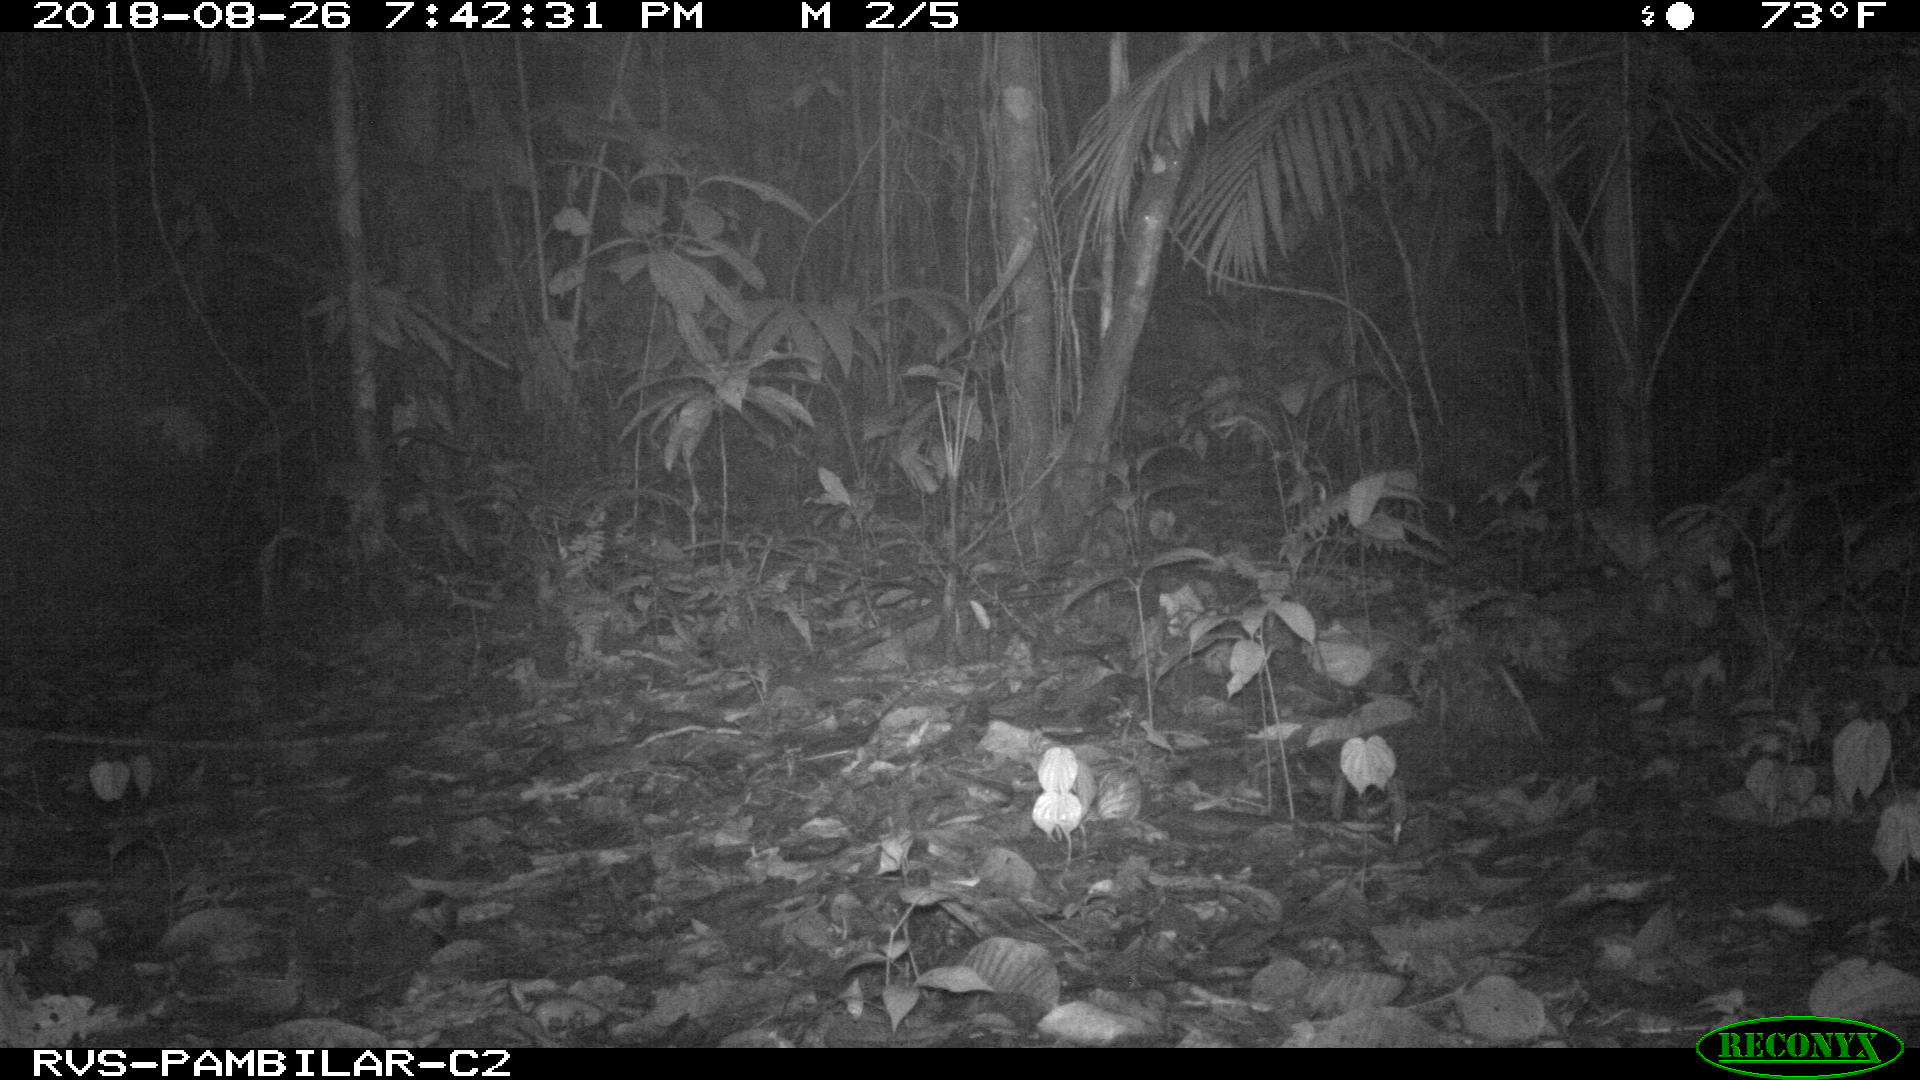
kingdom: Animalia
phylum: Chordata
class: Mammalia
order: Rodentia
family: Cuniculidae
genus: Cuniculus
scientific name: Cuniculus paca
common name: Lowland paca
